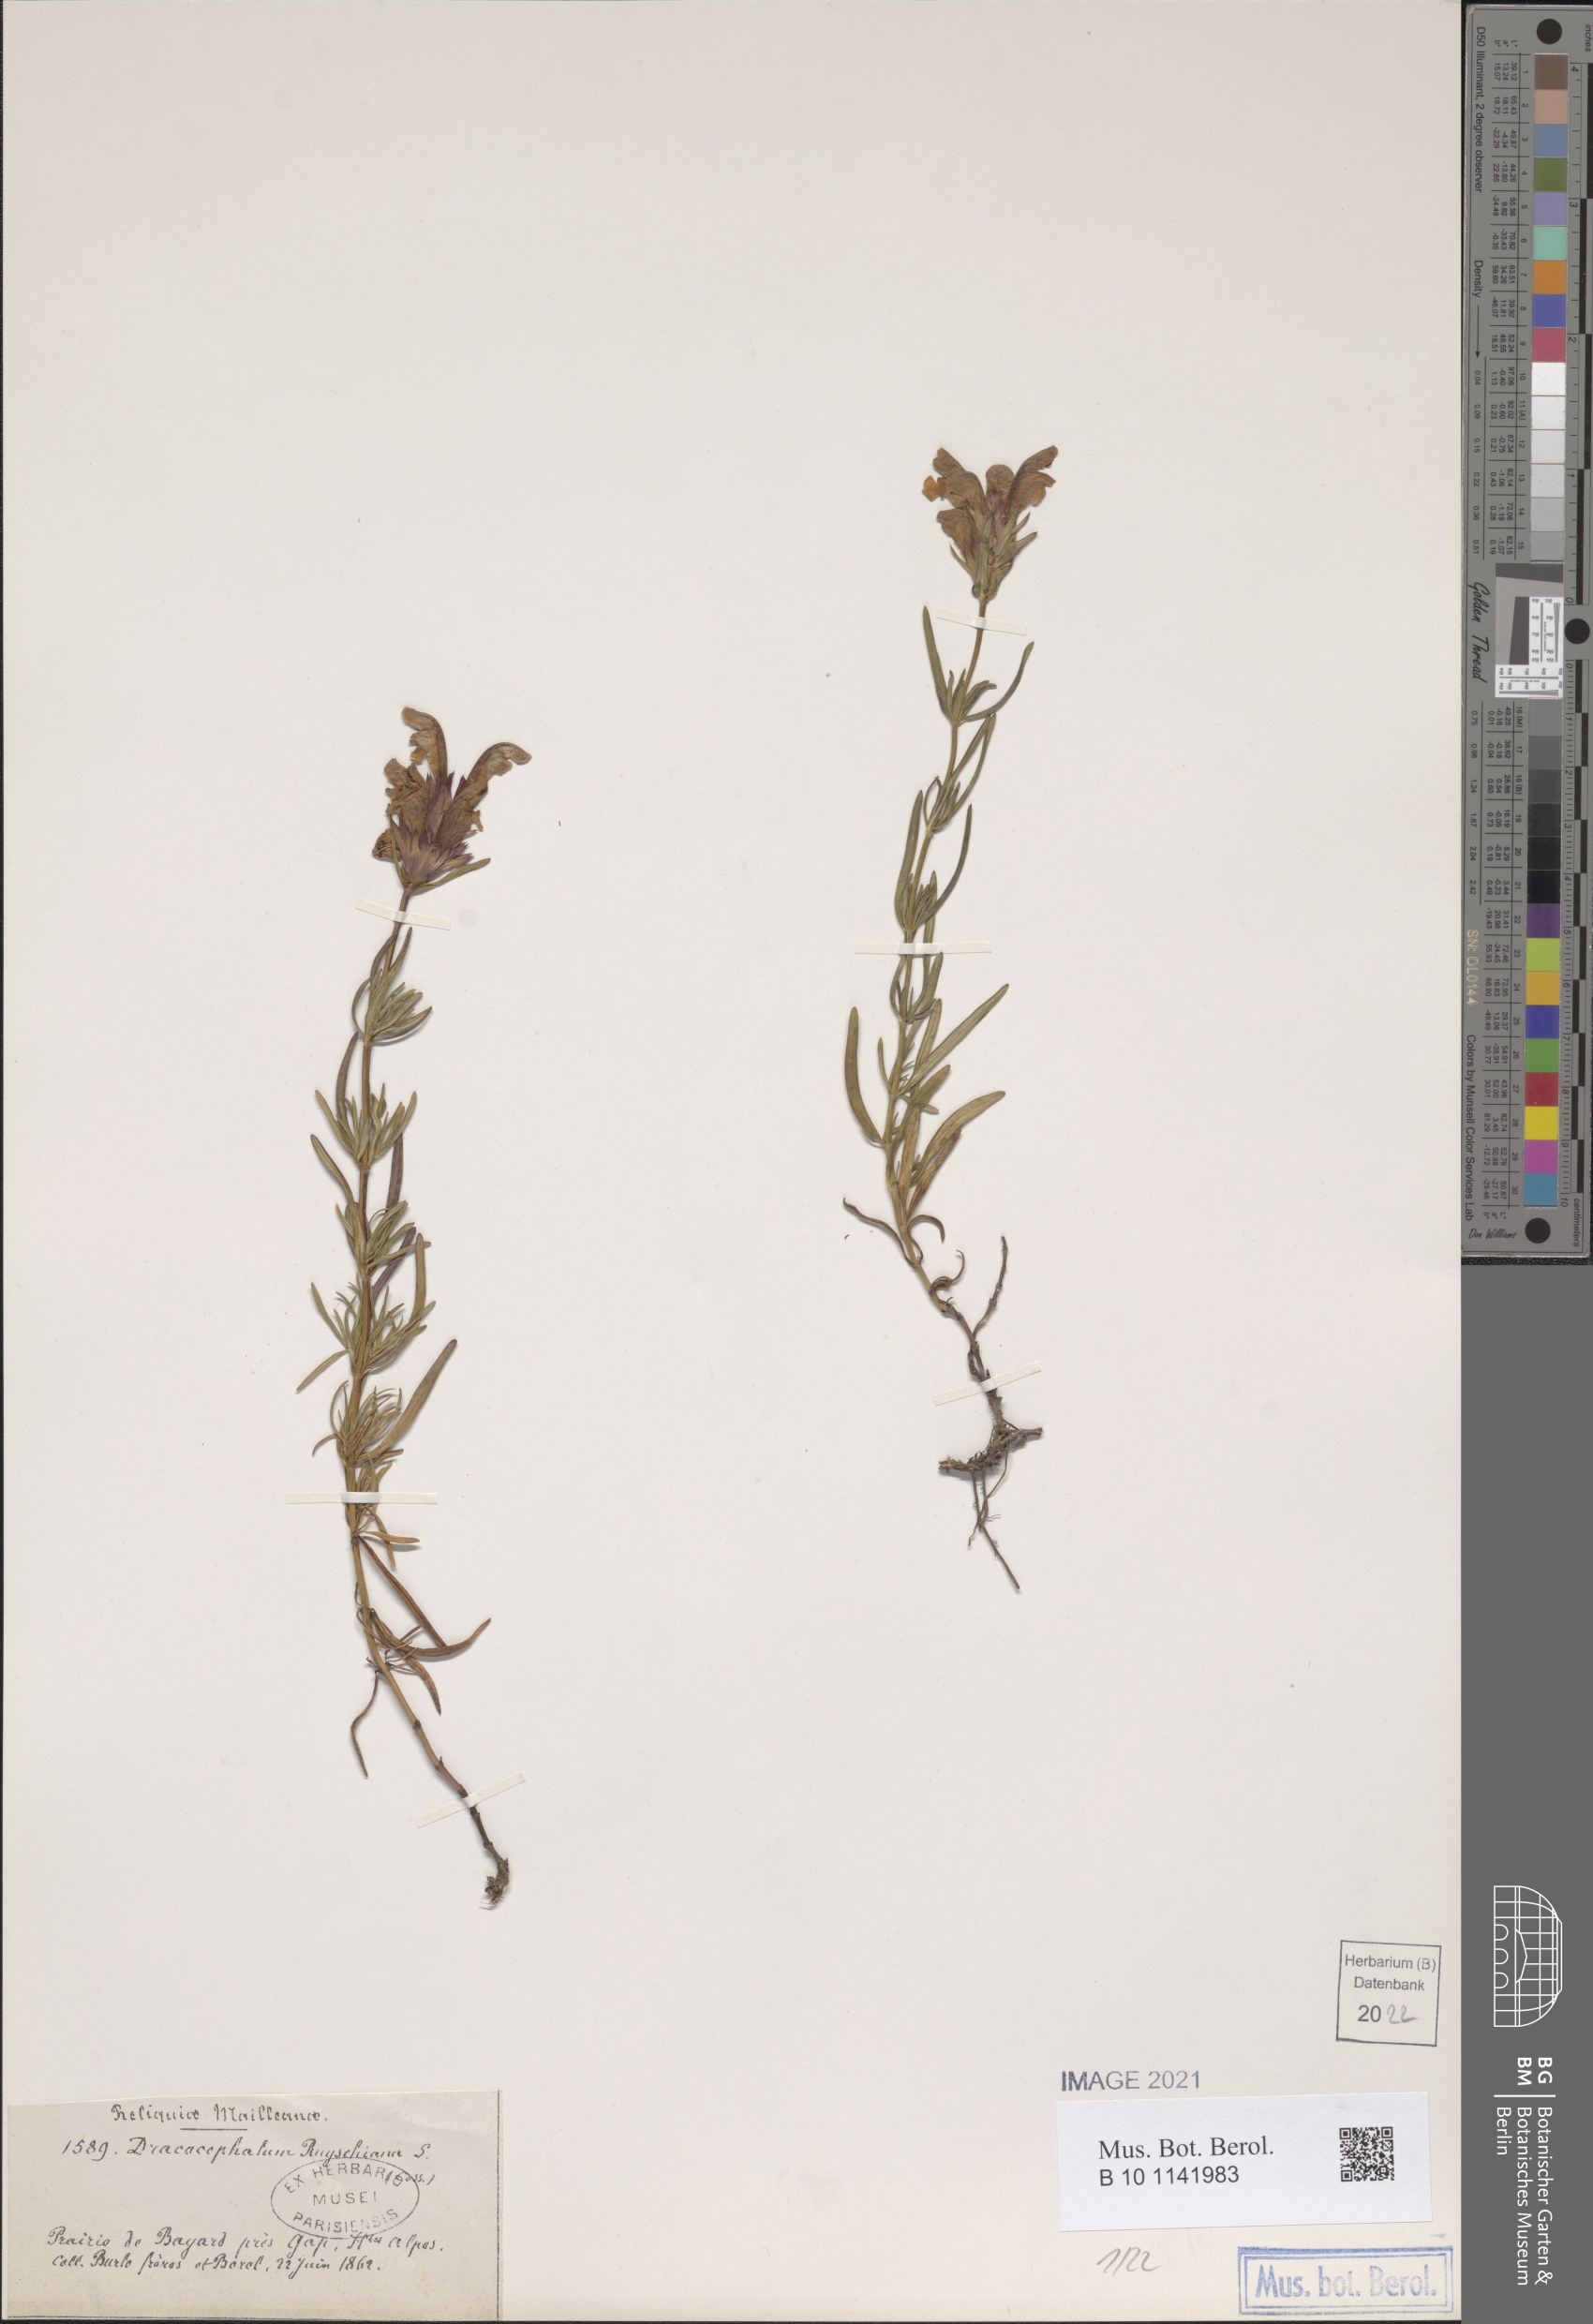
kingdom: Plantae
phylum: Tracheophyta
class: Magnoliopsida
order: Lamiales
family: Lamiaceae
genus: Dracocephalum
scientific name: Dracocephalum ruyschiana
